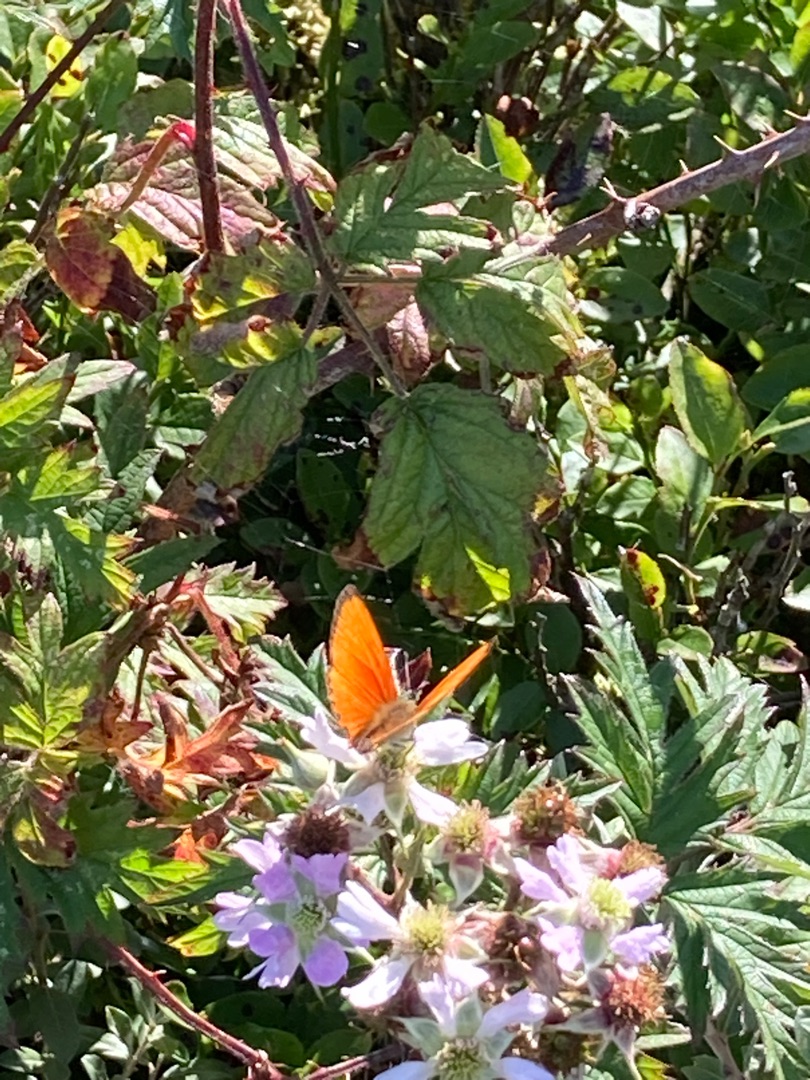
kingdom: Animalia
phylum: Arthropoda
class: Insecta
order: Lepidoptera
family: Lycaenidae
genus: Lycaena
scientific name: Lycaena virgaureae
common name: Dukatsommerfugl
